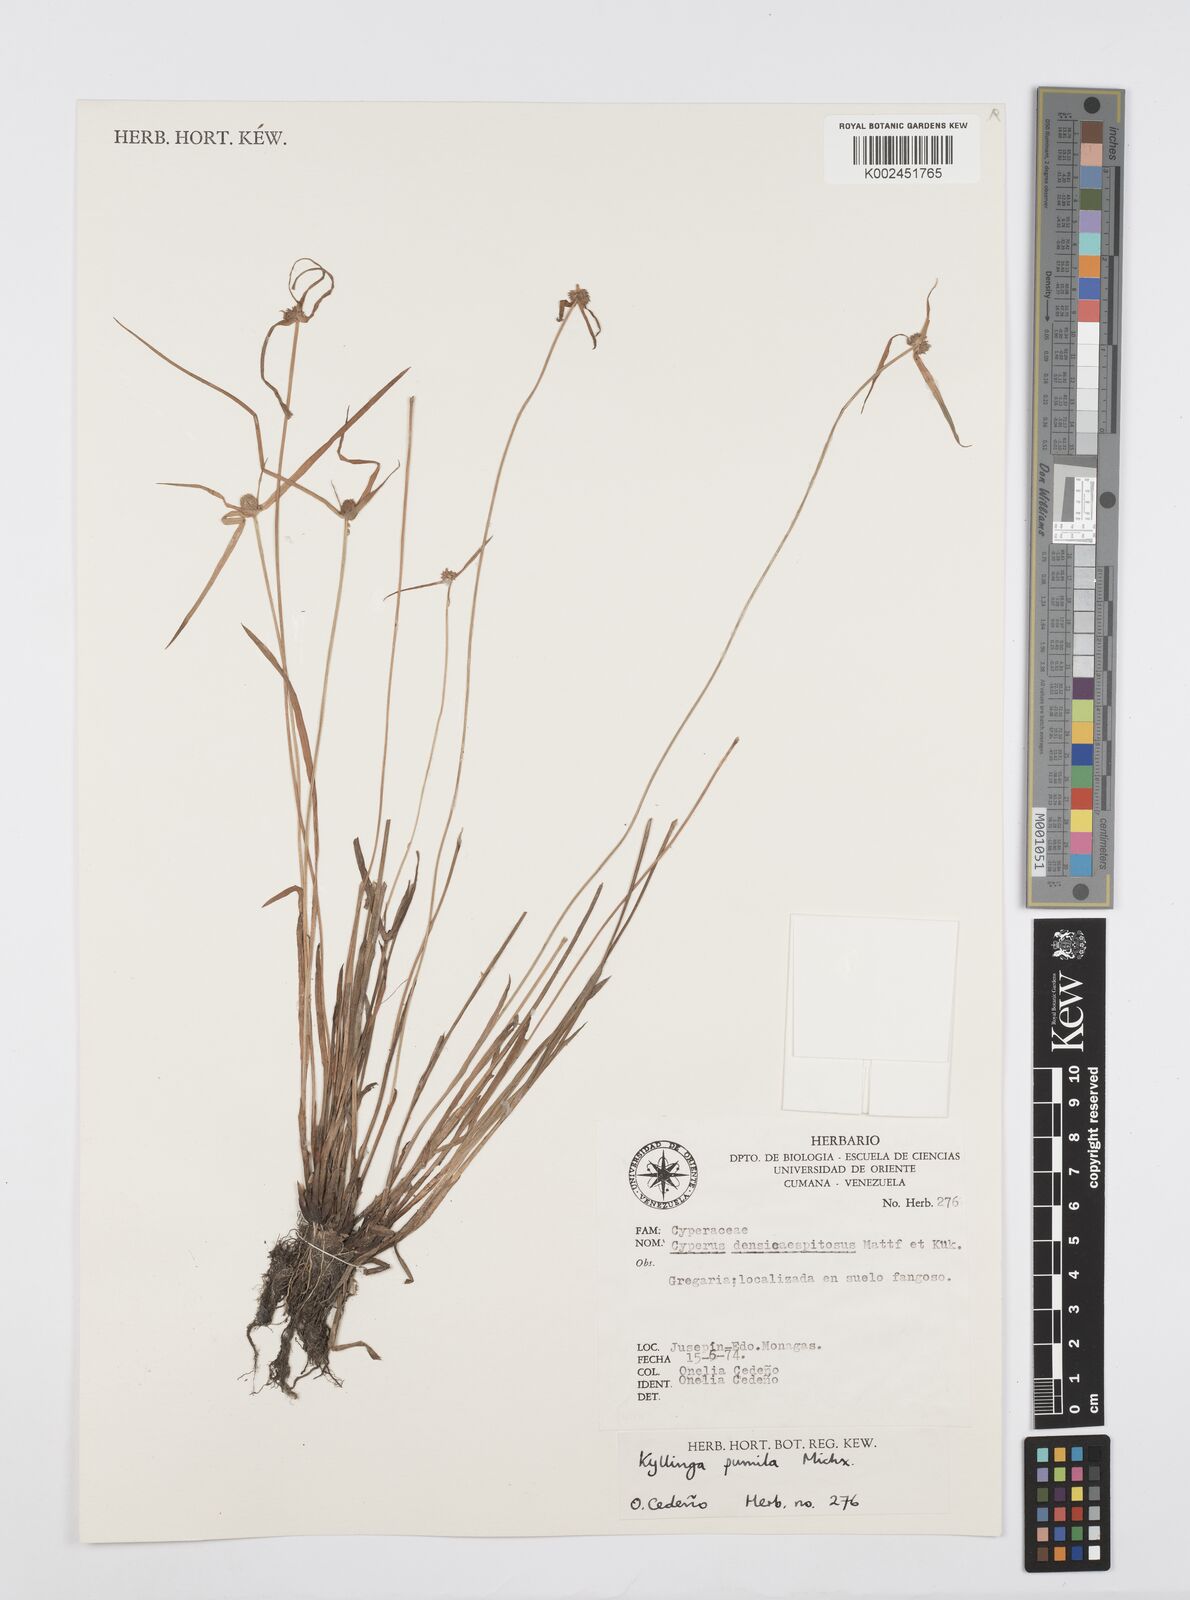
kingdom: Plantae
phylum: Tracheophyta
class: Liliopsida
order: Poales
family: Cyperaceae
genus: Cyperus
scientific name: Cyperus
